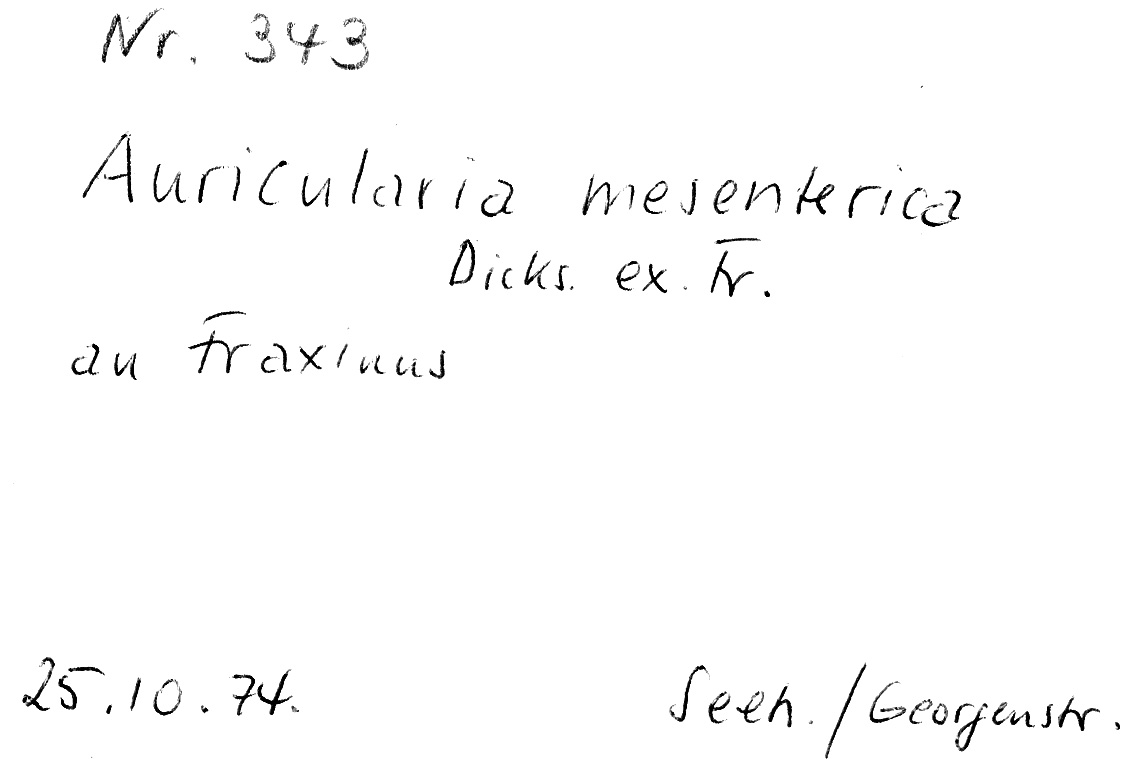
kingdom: Fungi
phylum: Basidiomycota
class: Agaricomycetes
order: Auriculariales
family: Auriculariaceae
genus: Auricularia
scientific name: Auricularia mesenterica
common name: Tripe fungus
